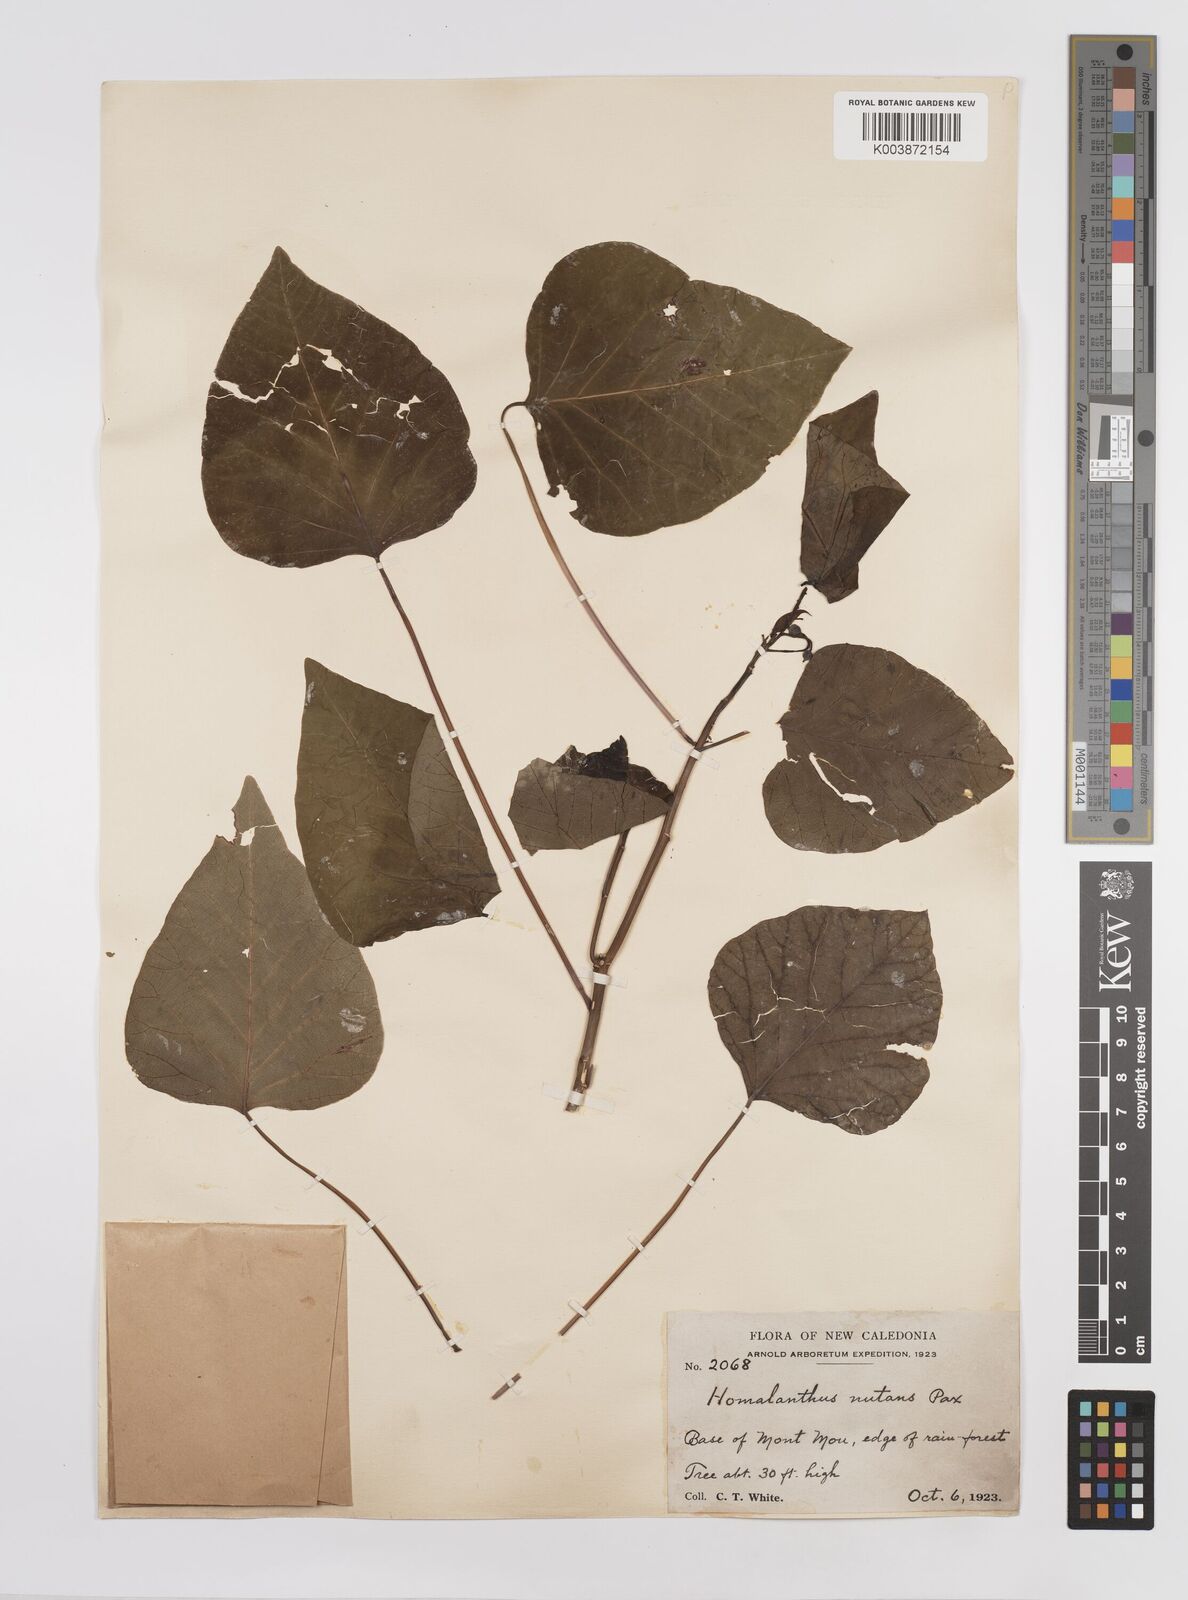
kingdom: Plantae
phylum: Tracheophyta
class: Magnoliopsida
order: Malpighiales
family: Euphorbiaceae
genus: Homalanthus
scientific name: Homalanthus nutans
